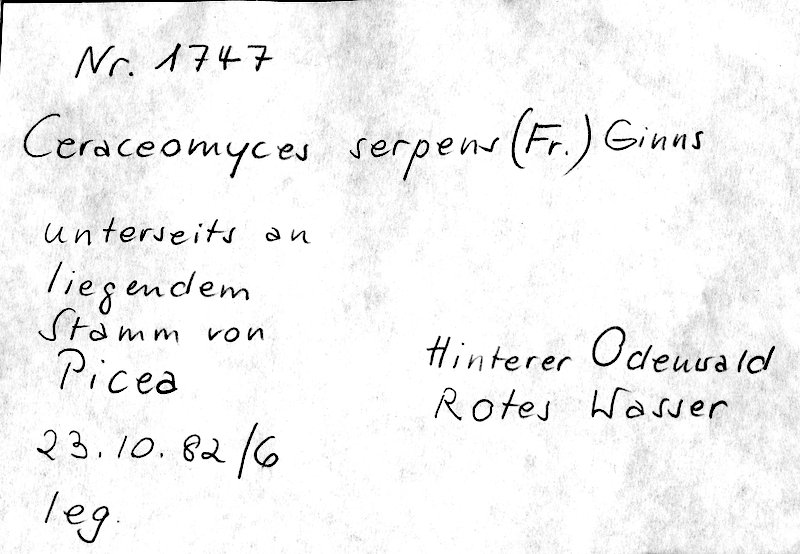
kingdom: Plantae
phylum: Tracheophyta
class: Pinopsida
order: Pinales
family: Pinaceae
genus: Picea
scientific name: Picea
